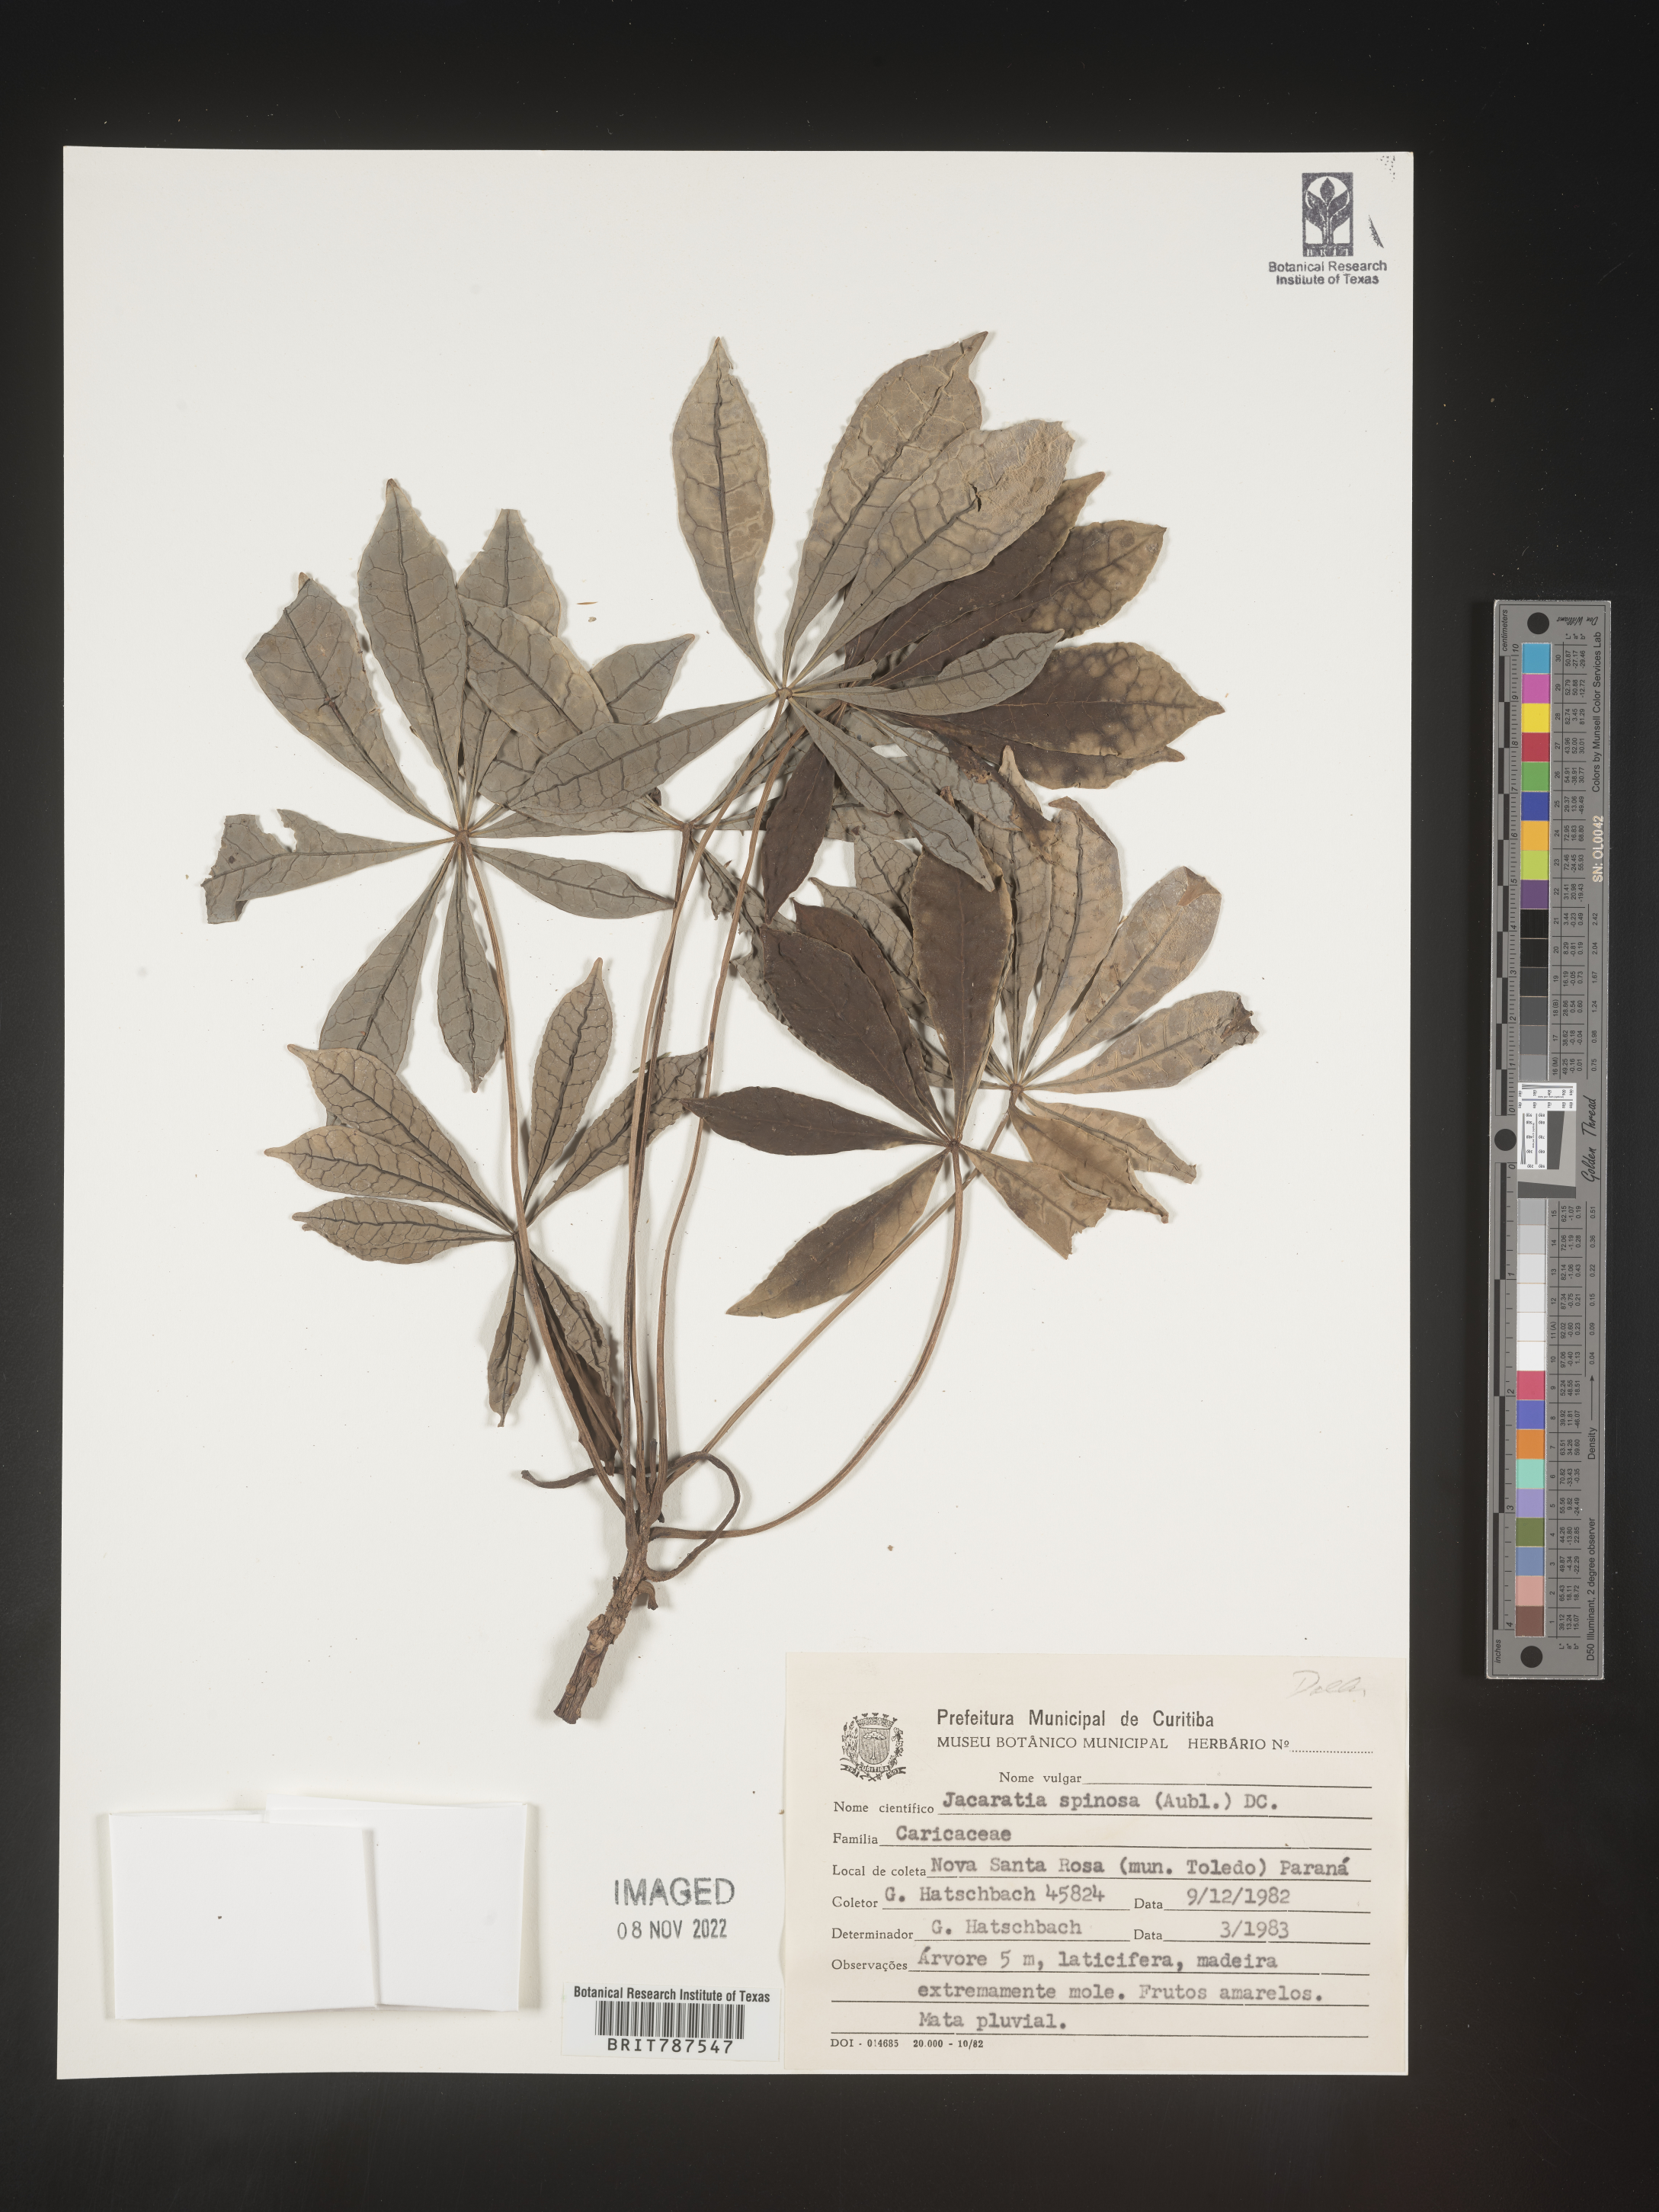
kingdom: Plantae
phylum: Tracheophyta
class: Magnoliopsida
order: Brassicales
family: Caricaceae
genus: Jacaratia
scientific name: Jacaratia
